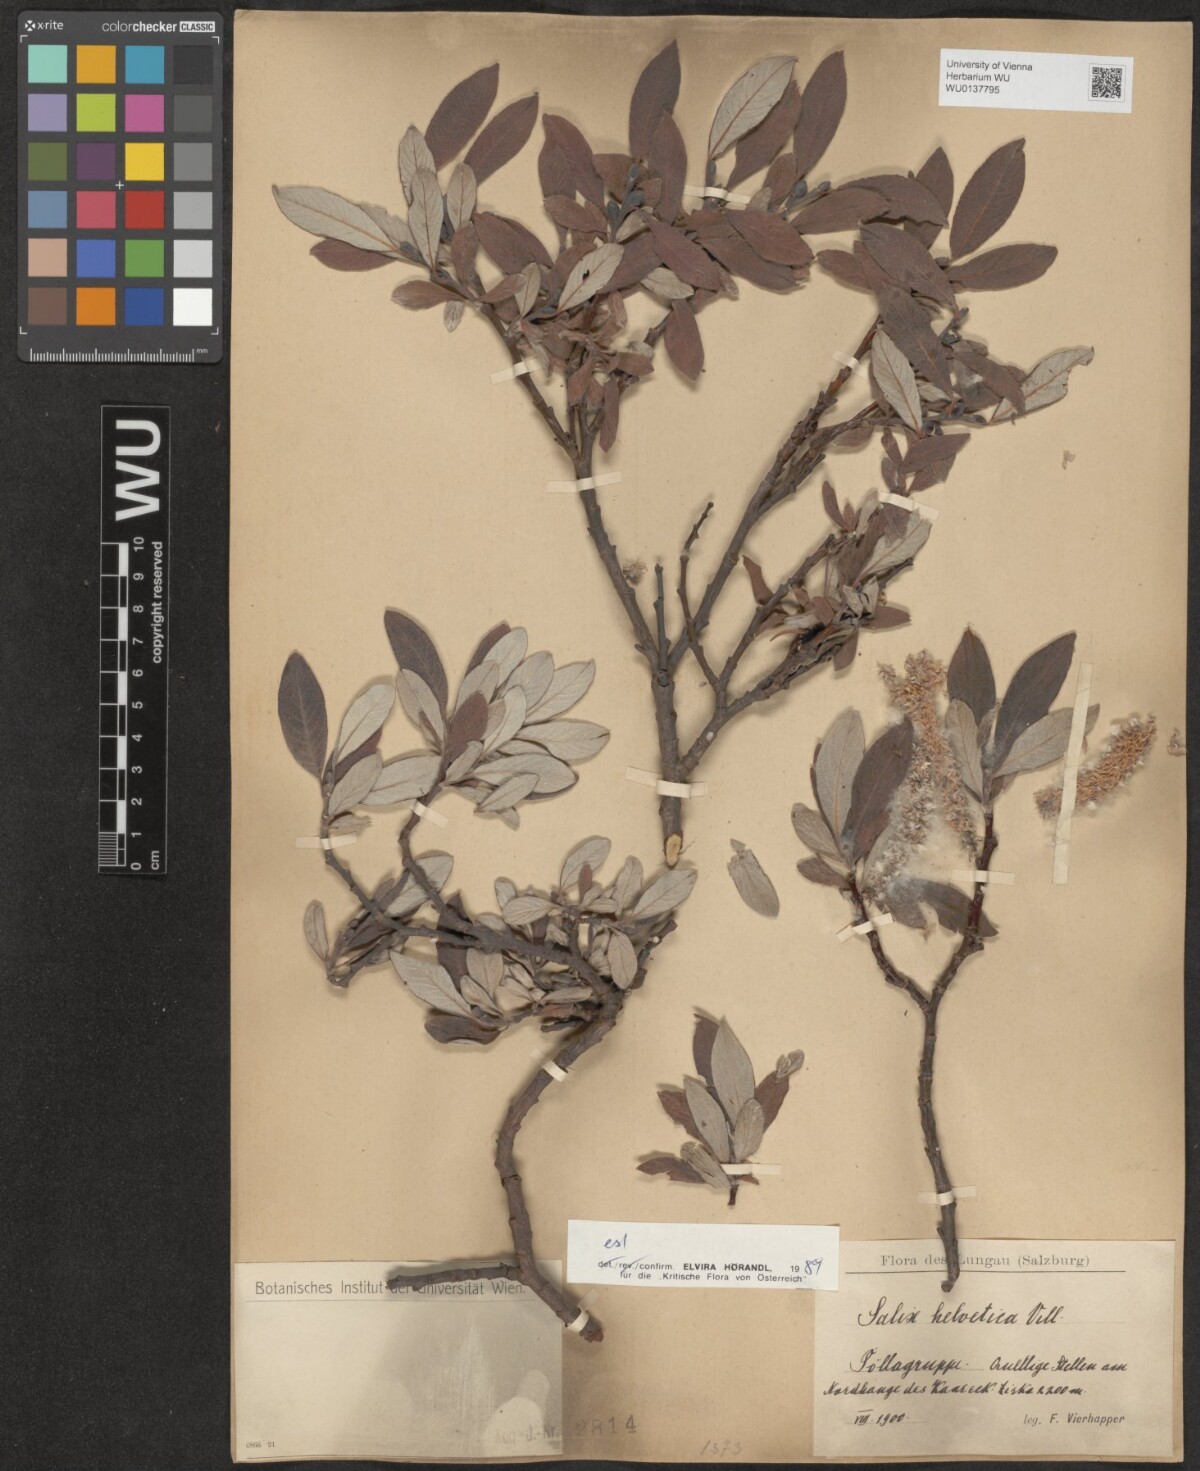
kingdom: Plantae
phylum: Tracheophyta
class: Magnoliopsida
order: Malpighiales
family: Salicaceae
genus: Salix
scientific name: Salix helvetica
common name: Swiss willow
